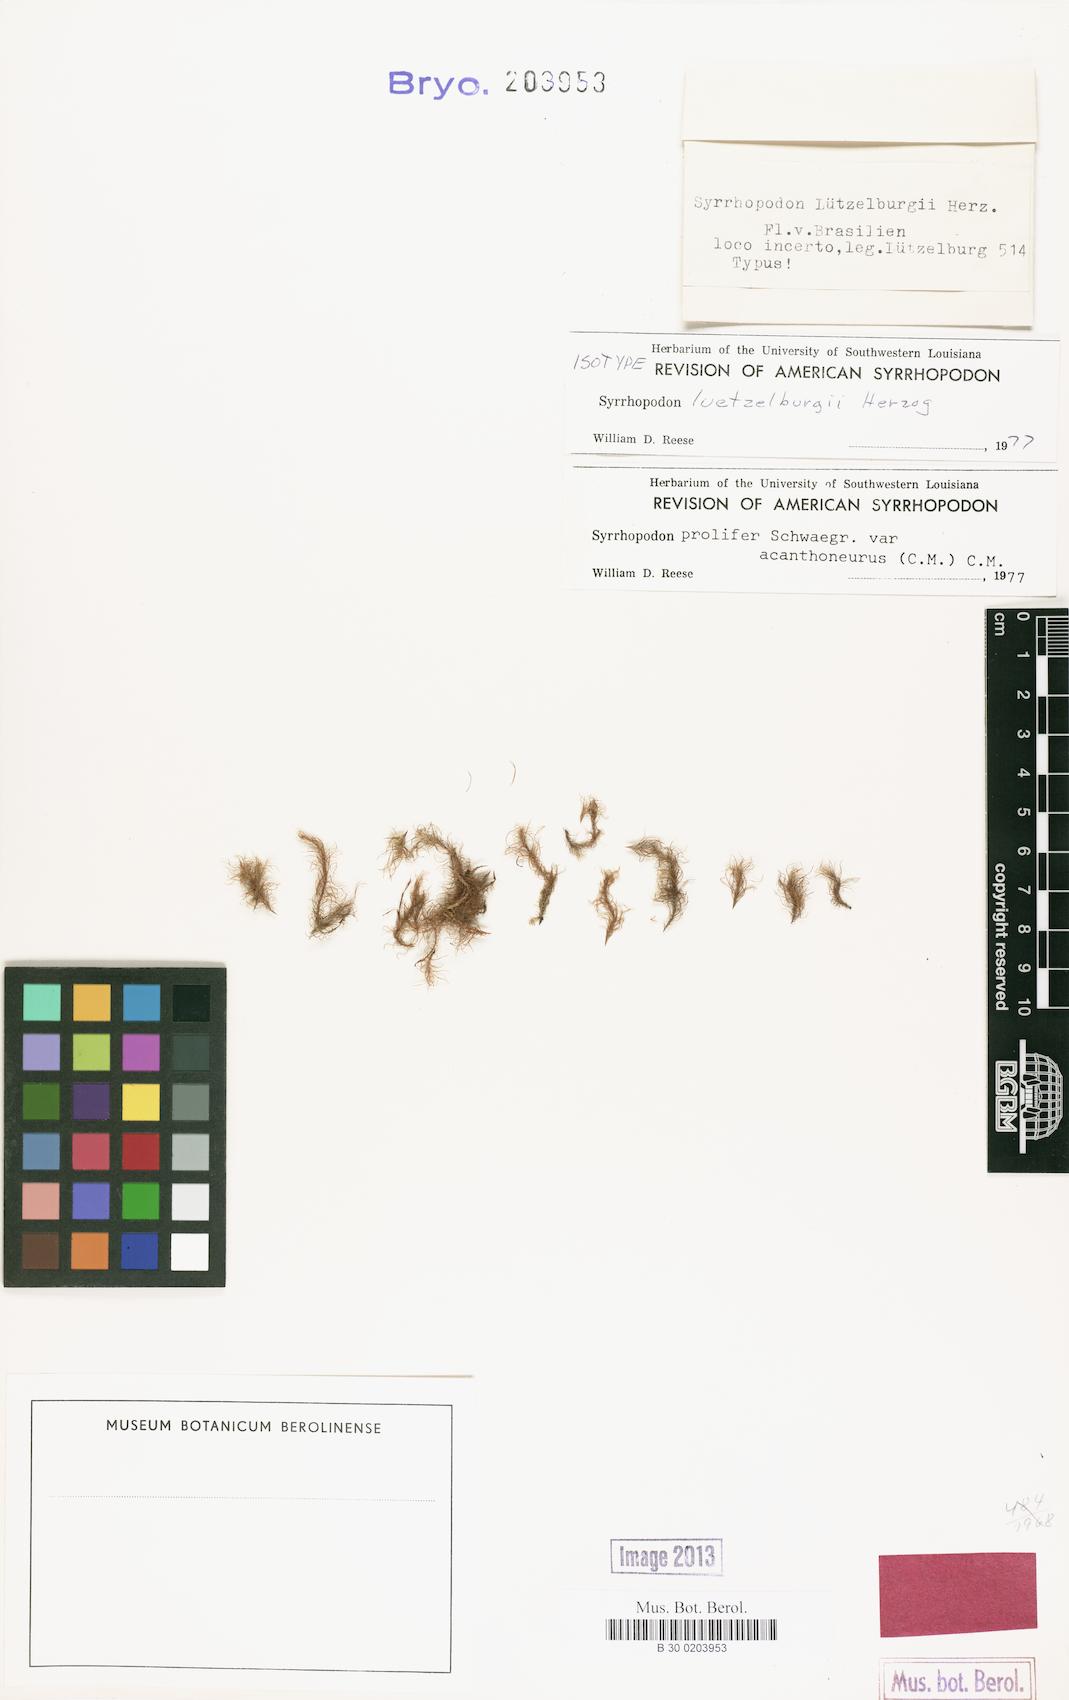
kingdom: Plantae
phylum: Bryophyta
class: Bryopsida
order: Dicranales
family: Calymperaceae
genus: Syrrhopodon
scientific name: Syrrhopodon prolifer
